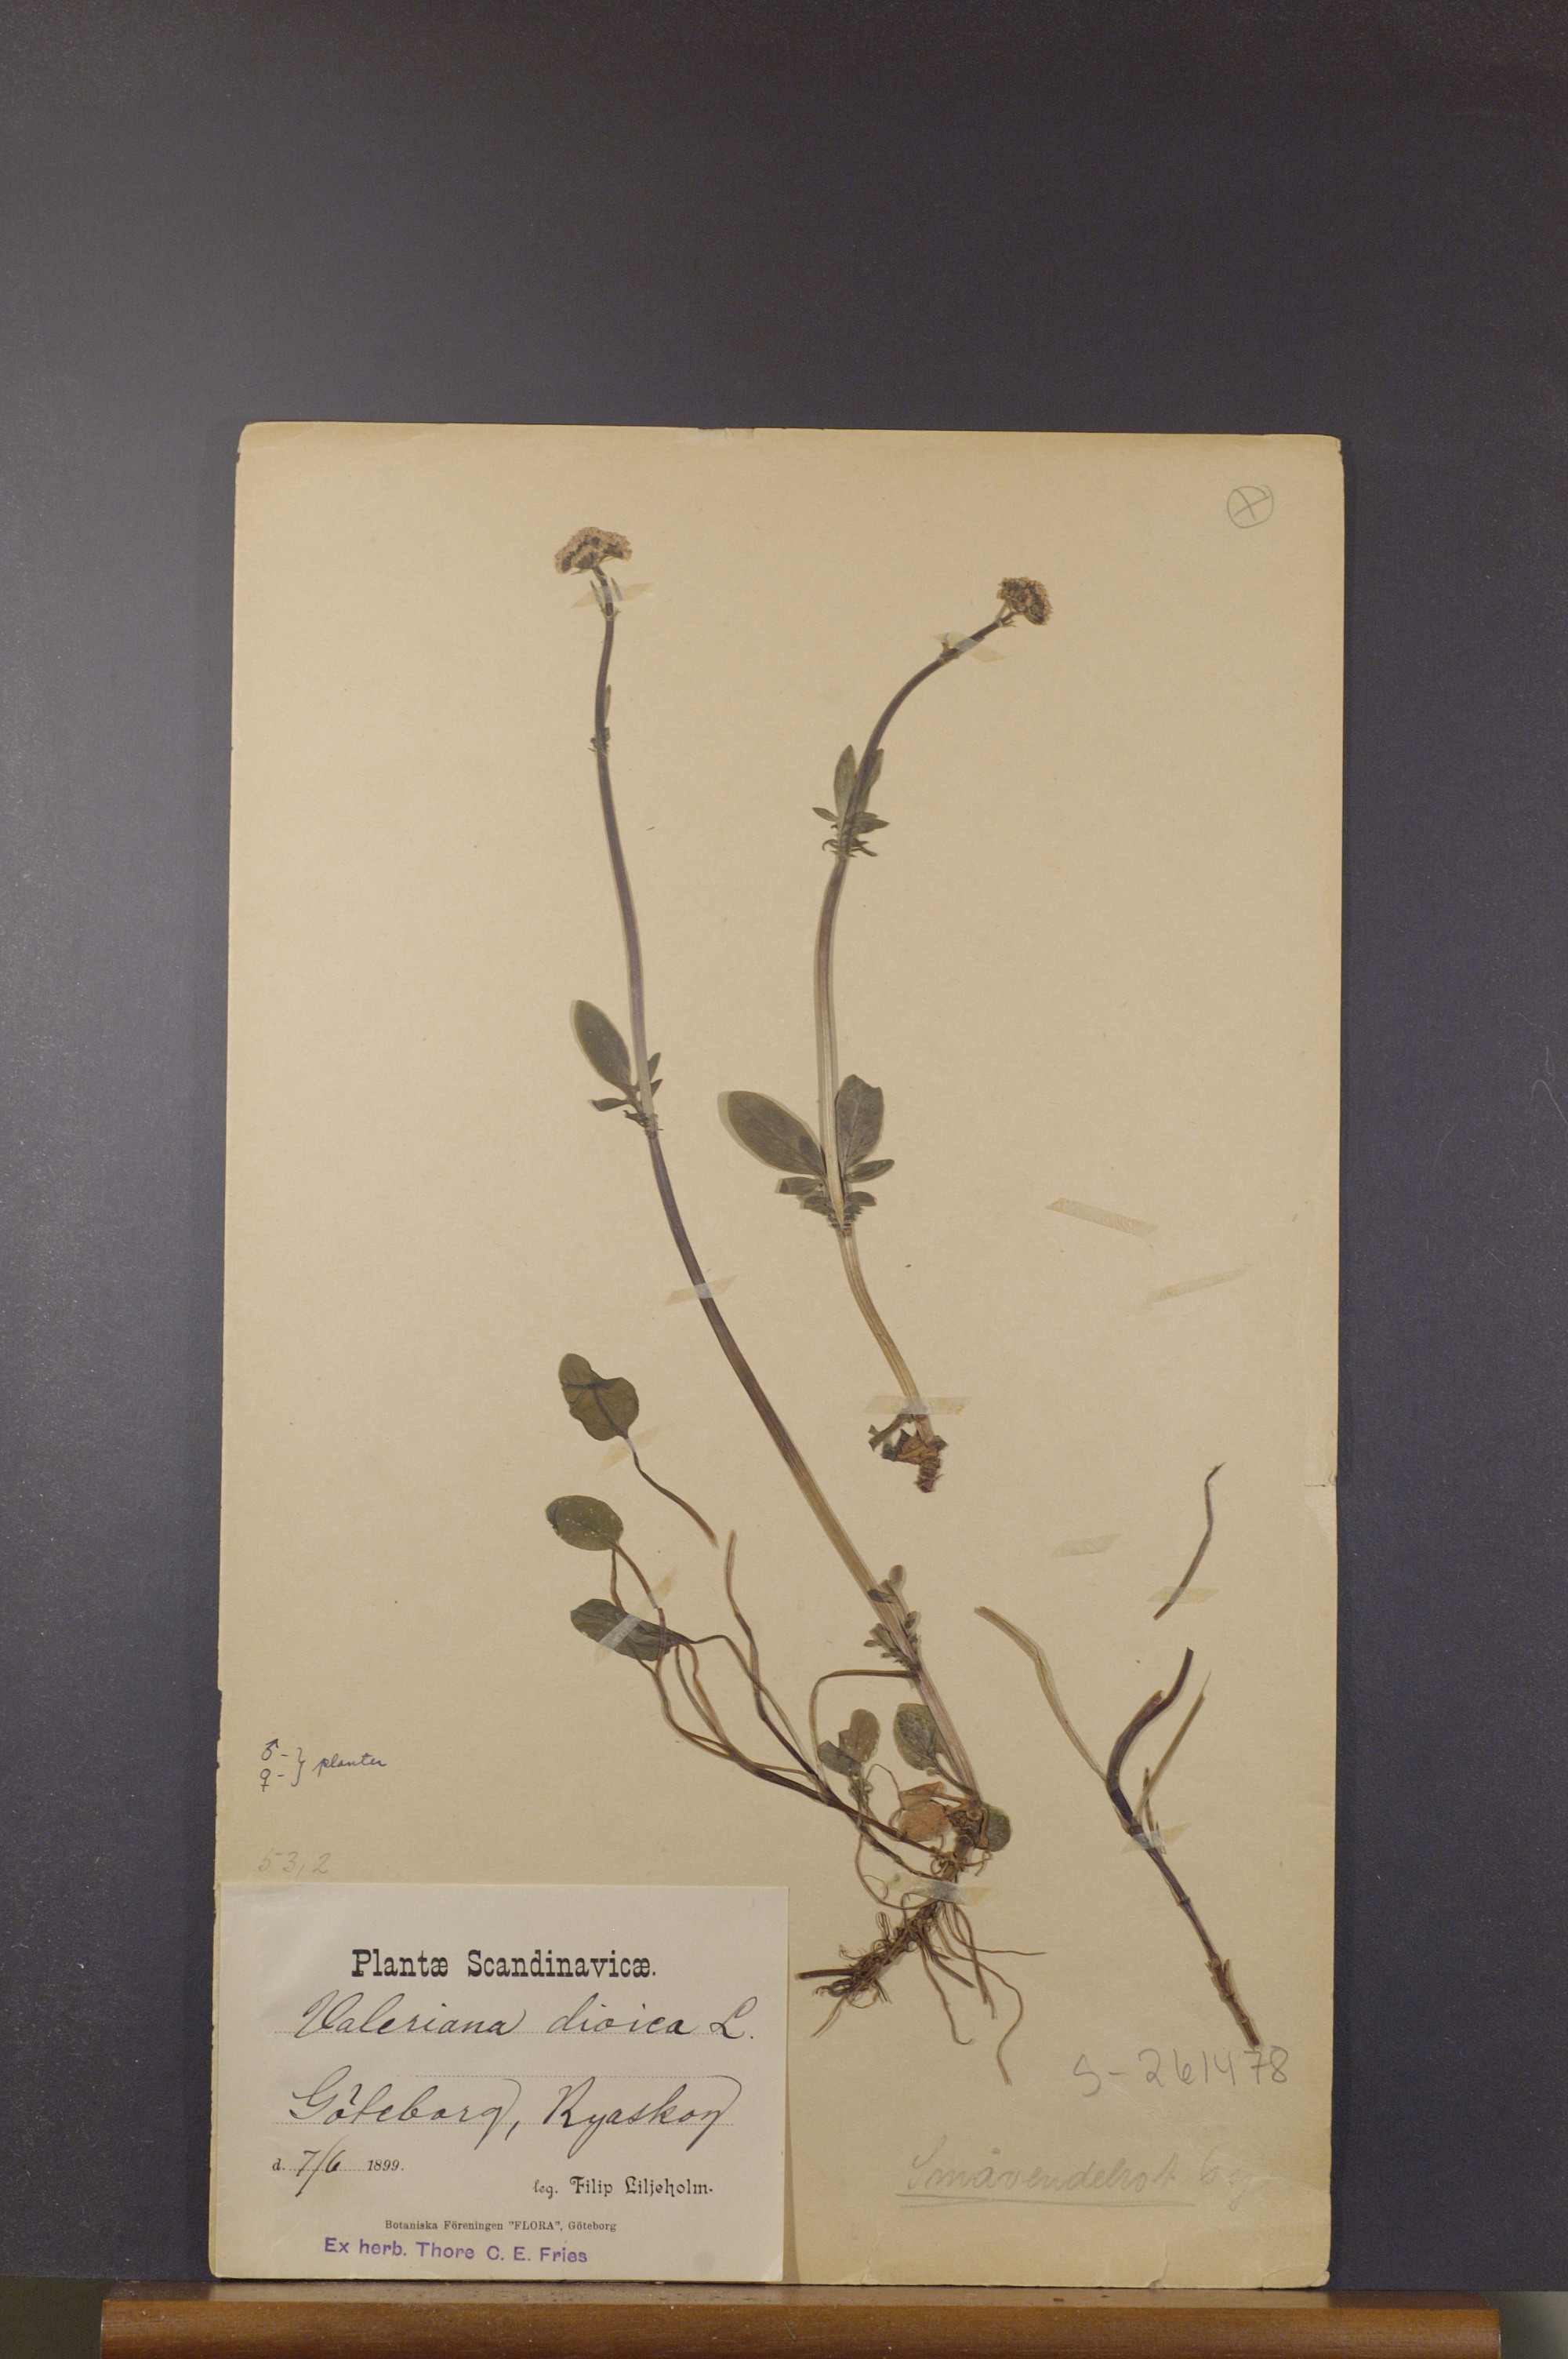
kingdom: Plantae
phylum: Tracheophyta
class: Magnoliopsida
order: Dipsacales
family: Caprifoliaceae
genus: Valeriana
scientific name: Valeriana dioica
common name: Marsh valerian
